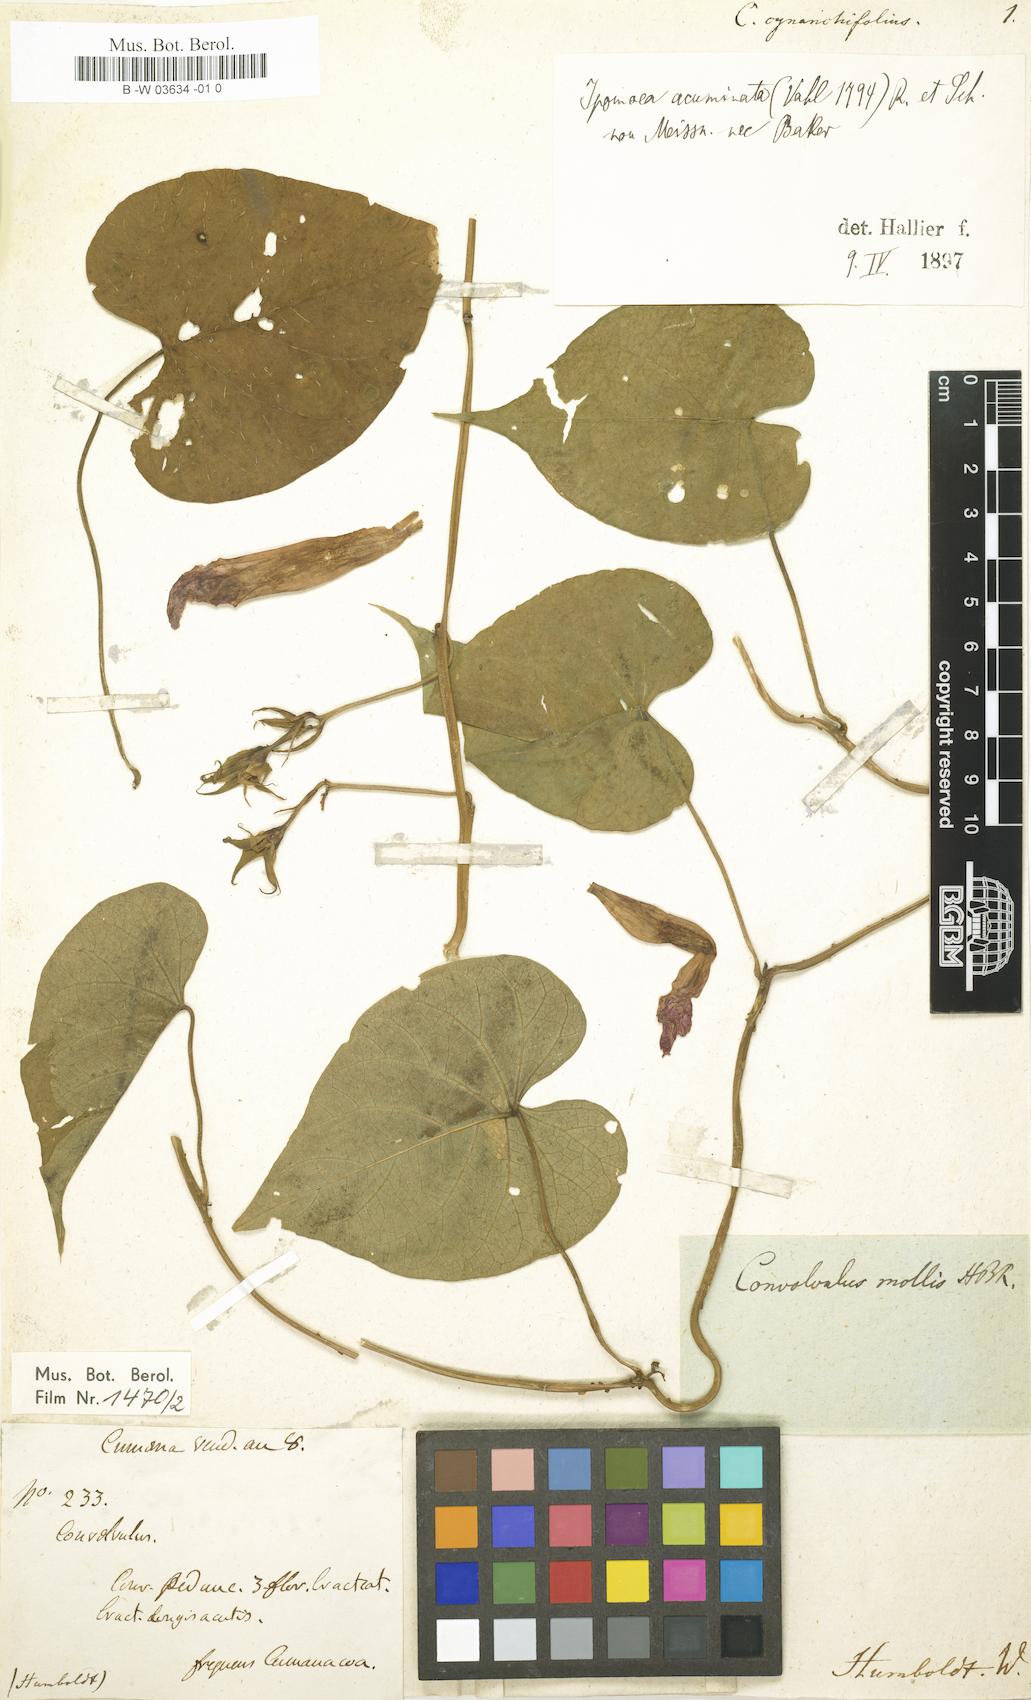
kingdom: Plantae
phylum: Tracheophyta
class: Magnoliopsida
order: Solanales
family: Convolvulaceae
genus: Ipomoea
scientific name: Ipomoea indica
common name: Blue dawnflower
